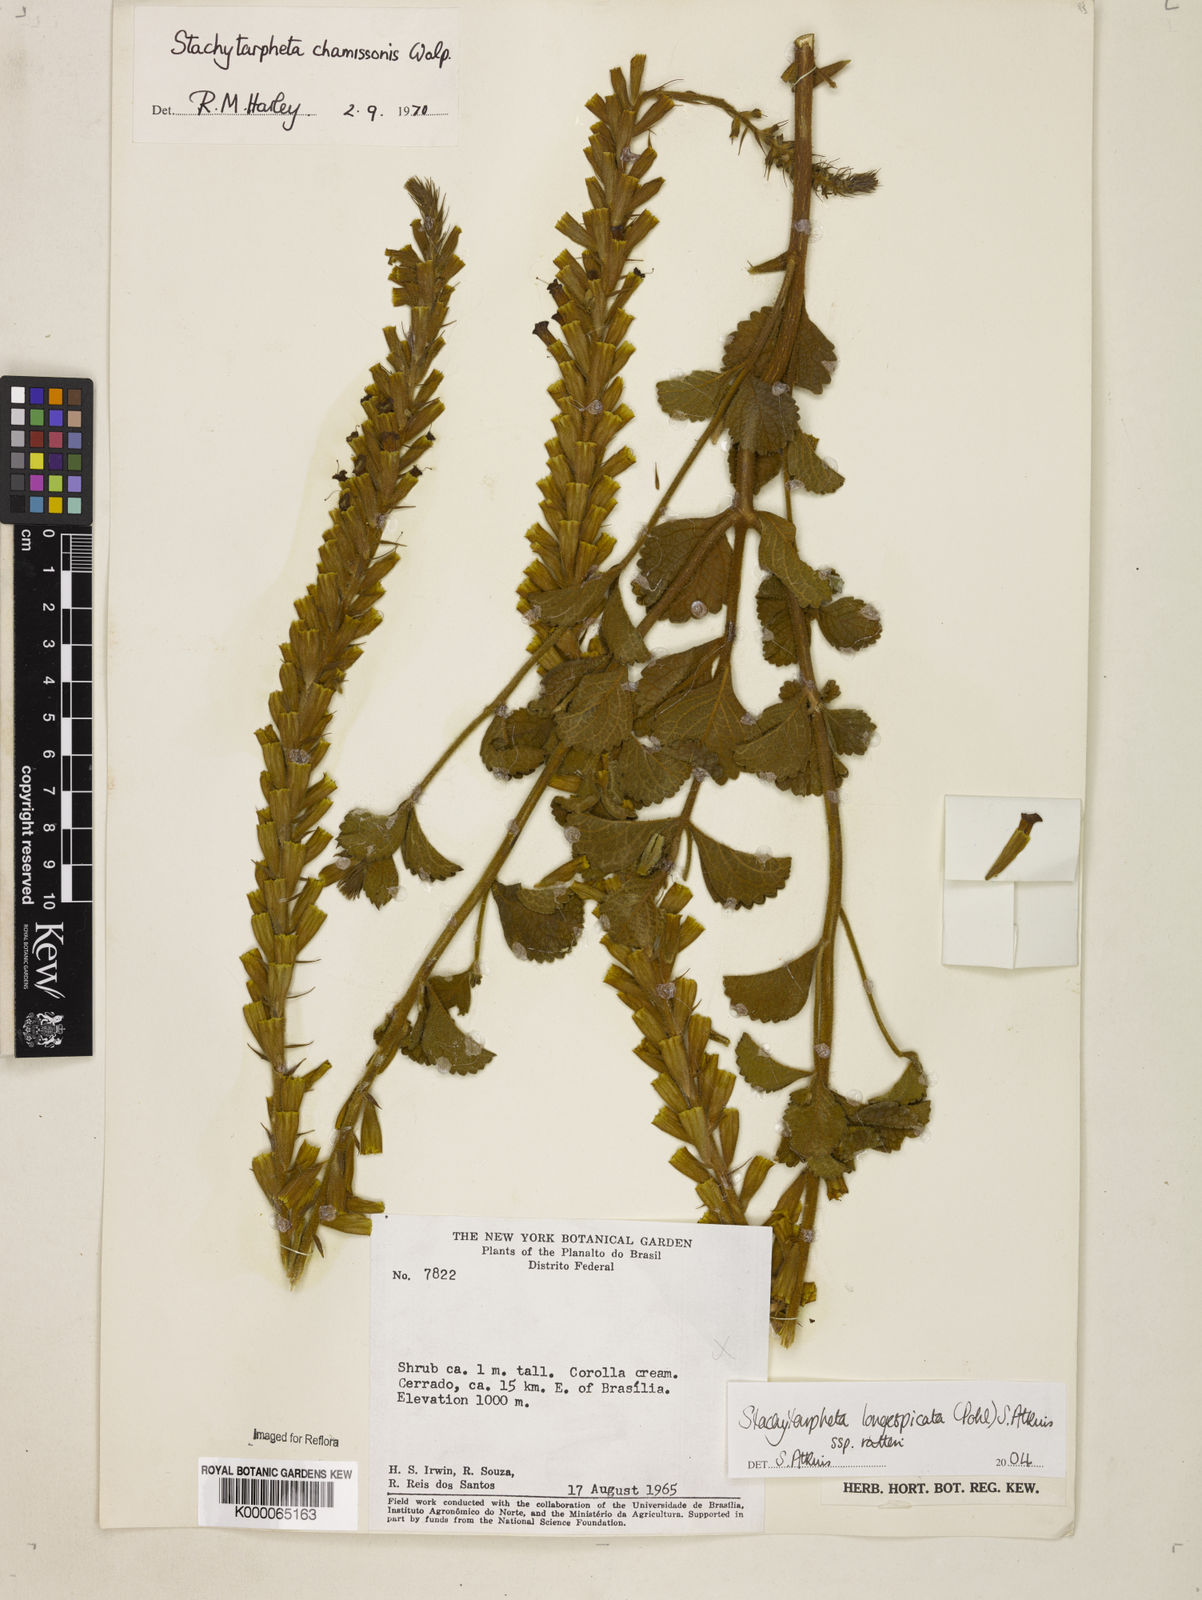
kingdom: Plantae
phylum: Tracheophyta
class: Magnoliopsida
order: Lamiales
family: Verbenaceae
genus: Stachytarpheta
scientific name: Stachytarpheta longispicata
